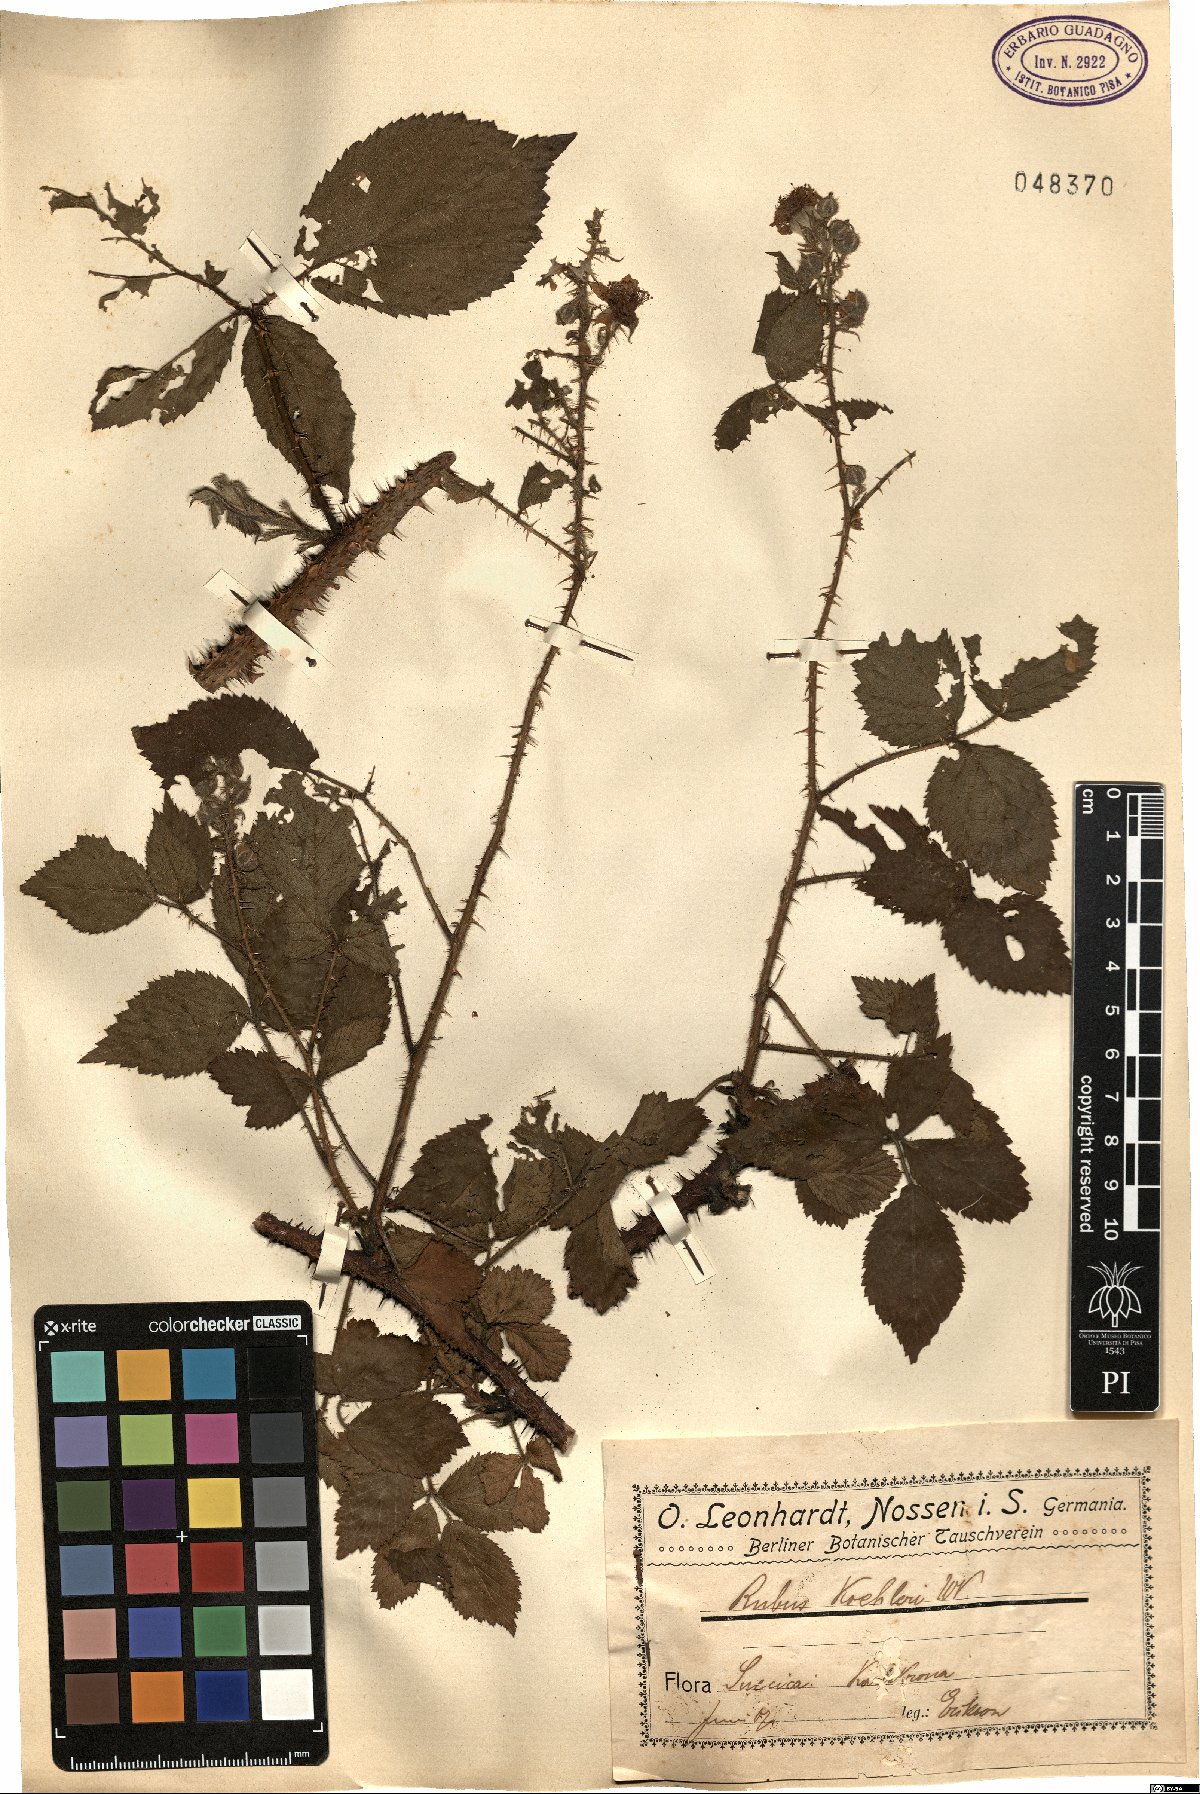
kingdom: Plantae
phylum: Tracheophyta
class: Magnoliopsida
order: Rosales
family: Rosaceae
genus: Rubus
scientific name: Rubus koehleri
